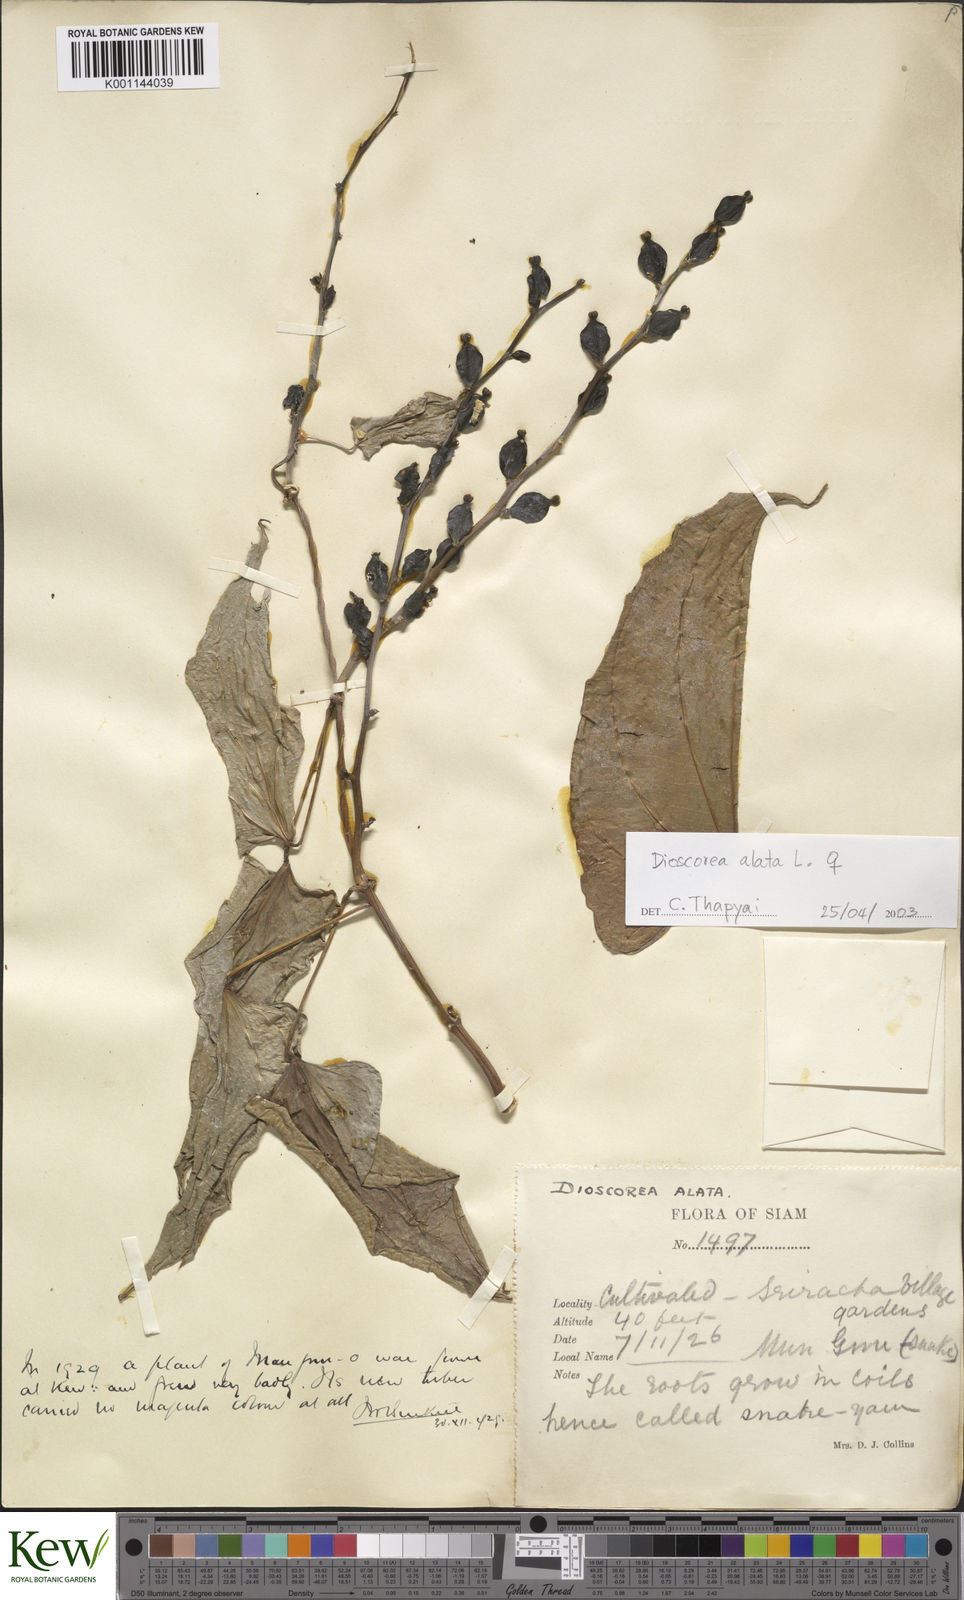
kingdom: Plantae
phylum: Tracheophyta
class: Liliopsida
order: Dioscoreales
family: Dioscoreaceae
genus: Dioscorea
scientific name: Dioscorea alata
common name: Water yam
